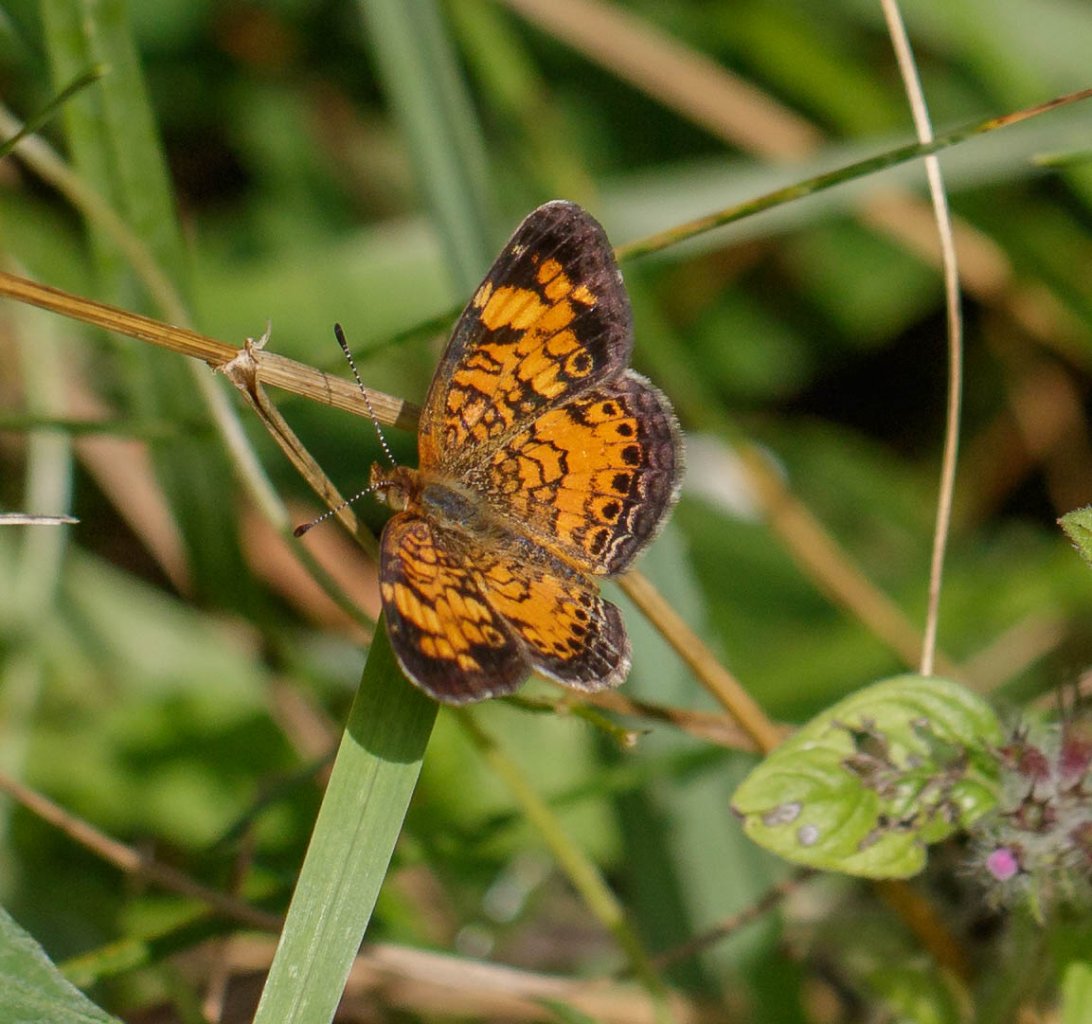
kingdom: Animalia
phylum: Arthropoda
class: Insecta
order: Lepidoptera
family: Nymphalidae
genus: Phyciodes
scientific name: Phyciodes
